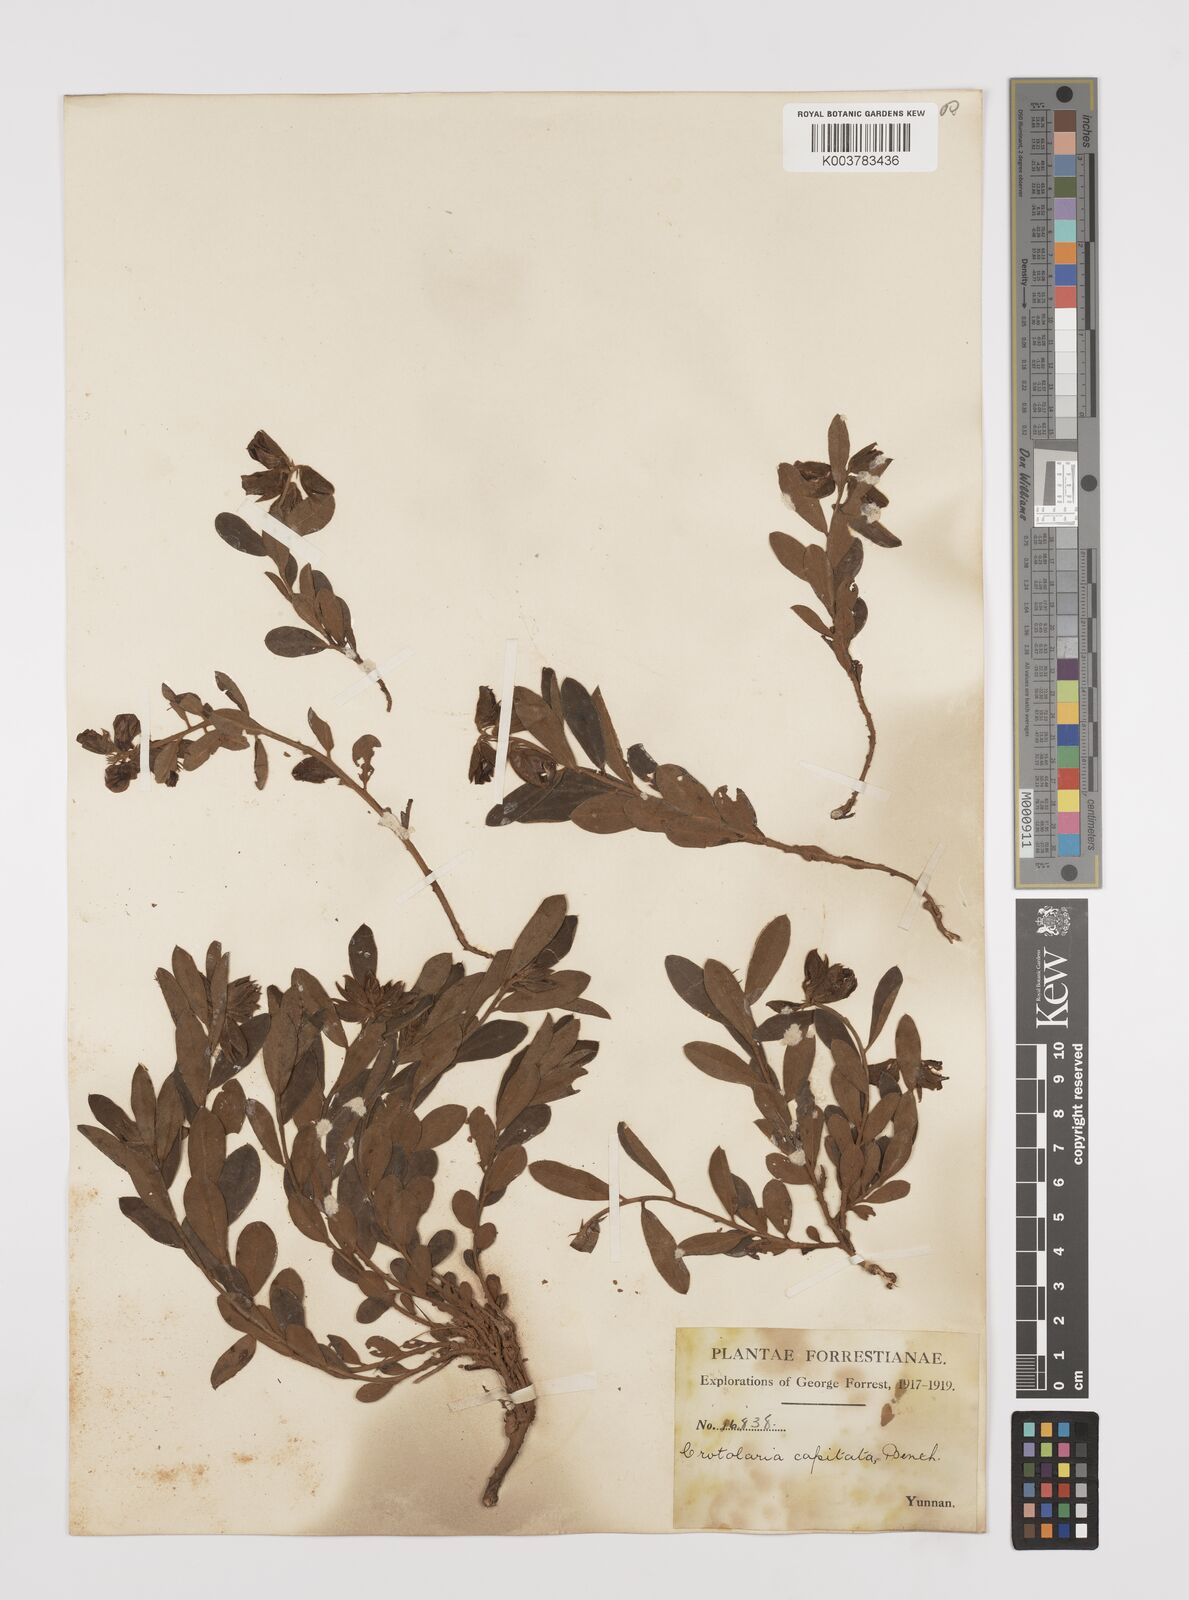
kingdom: Plantae
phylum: Tracheophyta
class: Magnoliopsida
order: Fabales
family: Fabaceae
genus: Liparia
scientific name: Liparia capitata
